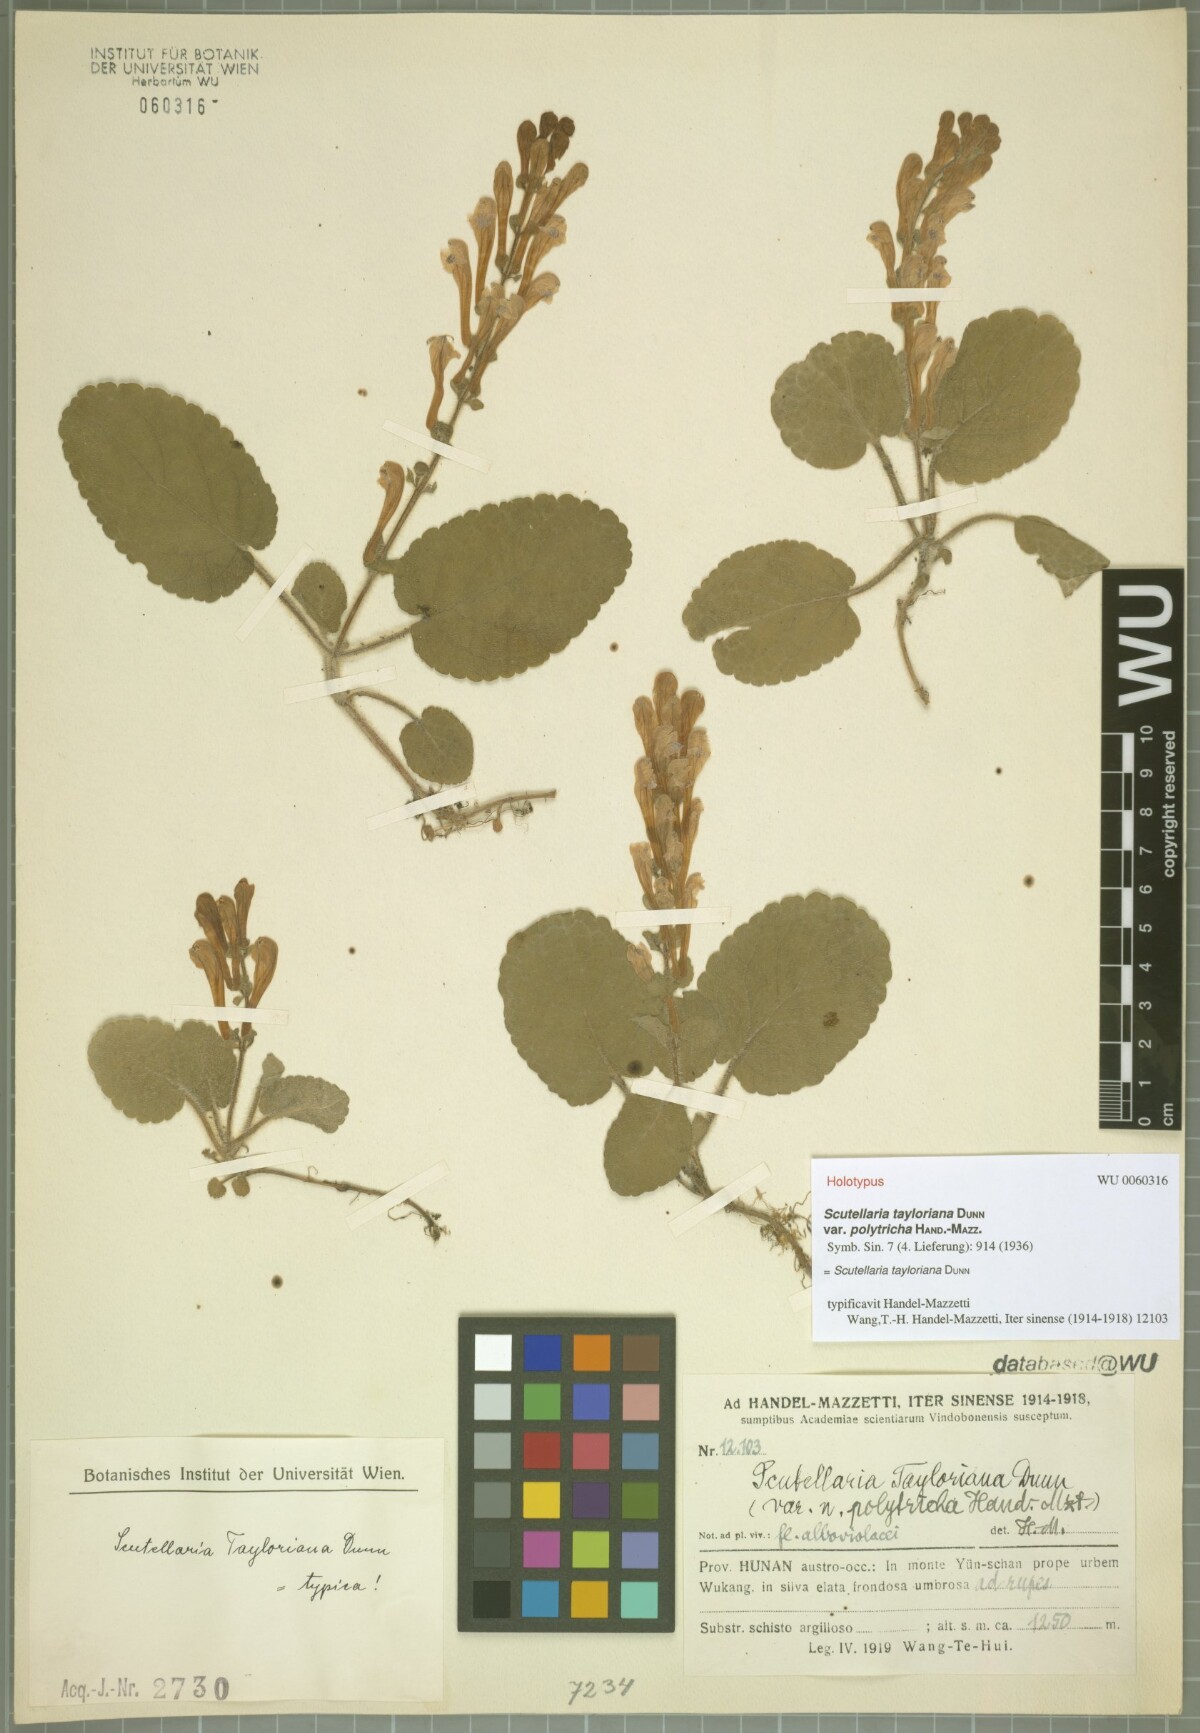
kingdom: Plantae
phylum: Tracheophyta
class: Magnoliopsida
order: Lamiales
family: Lamiaceae
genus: Scutellaria
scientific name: Scutellaria tayloriana
